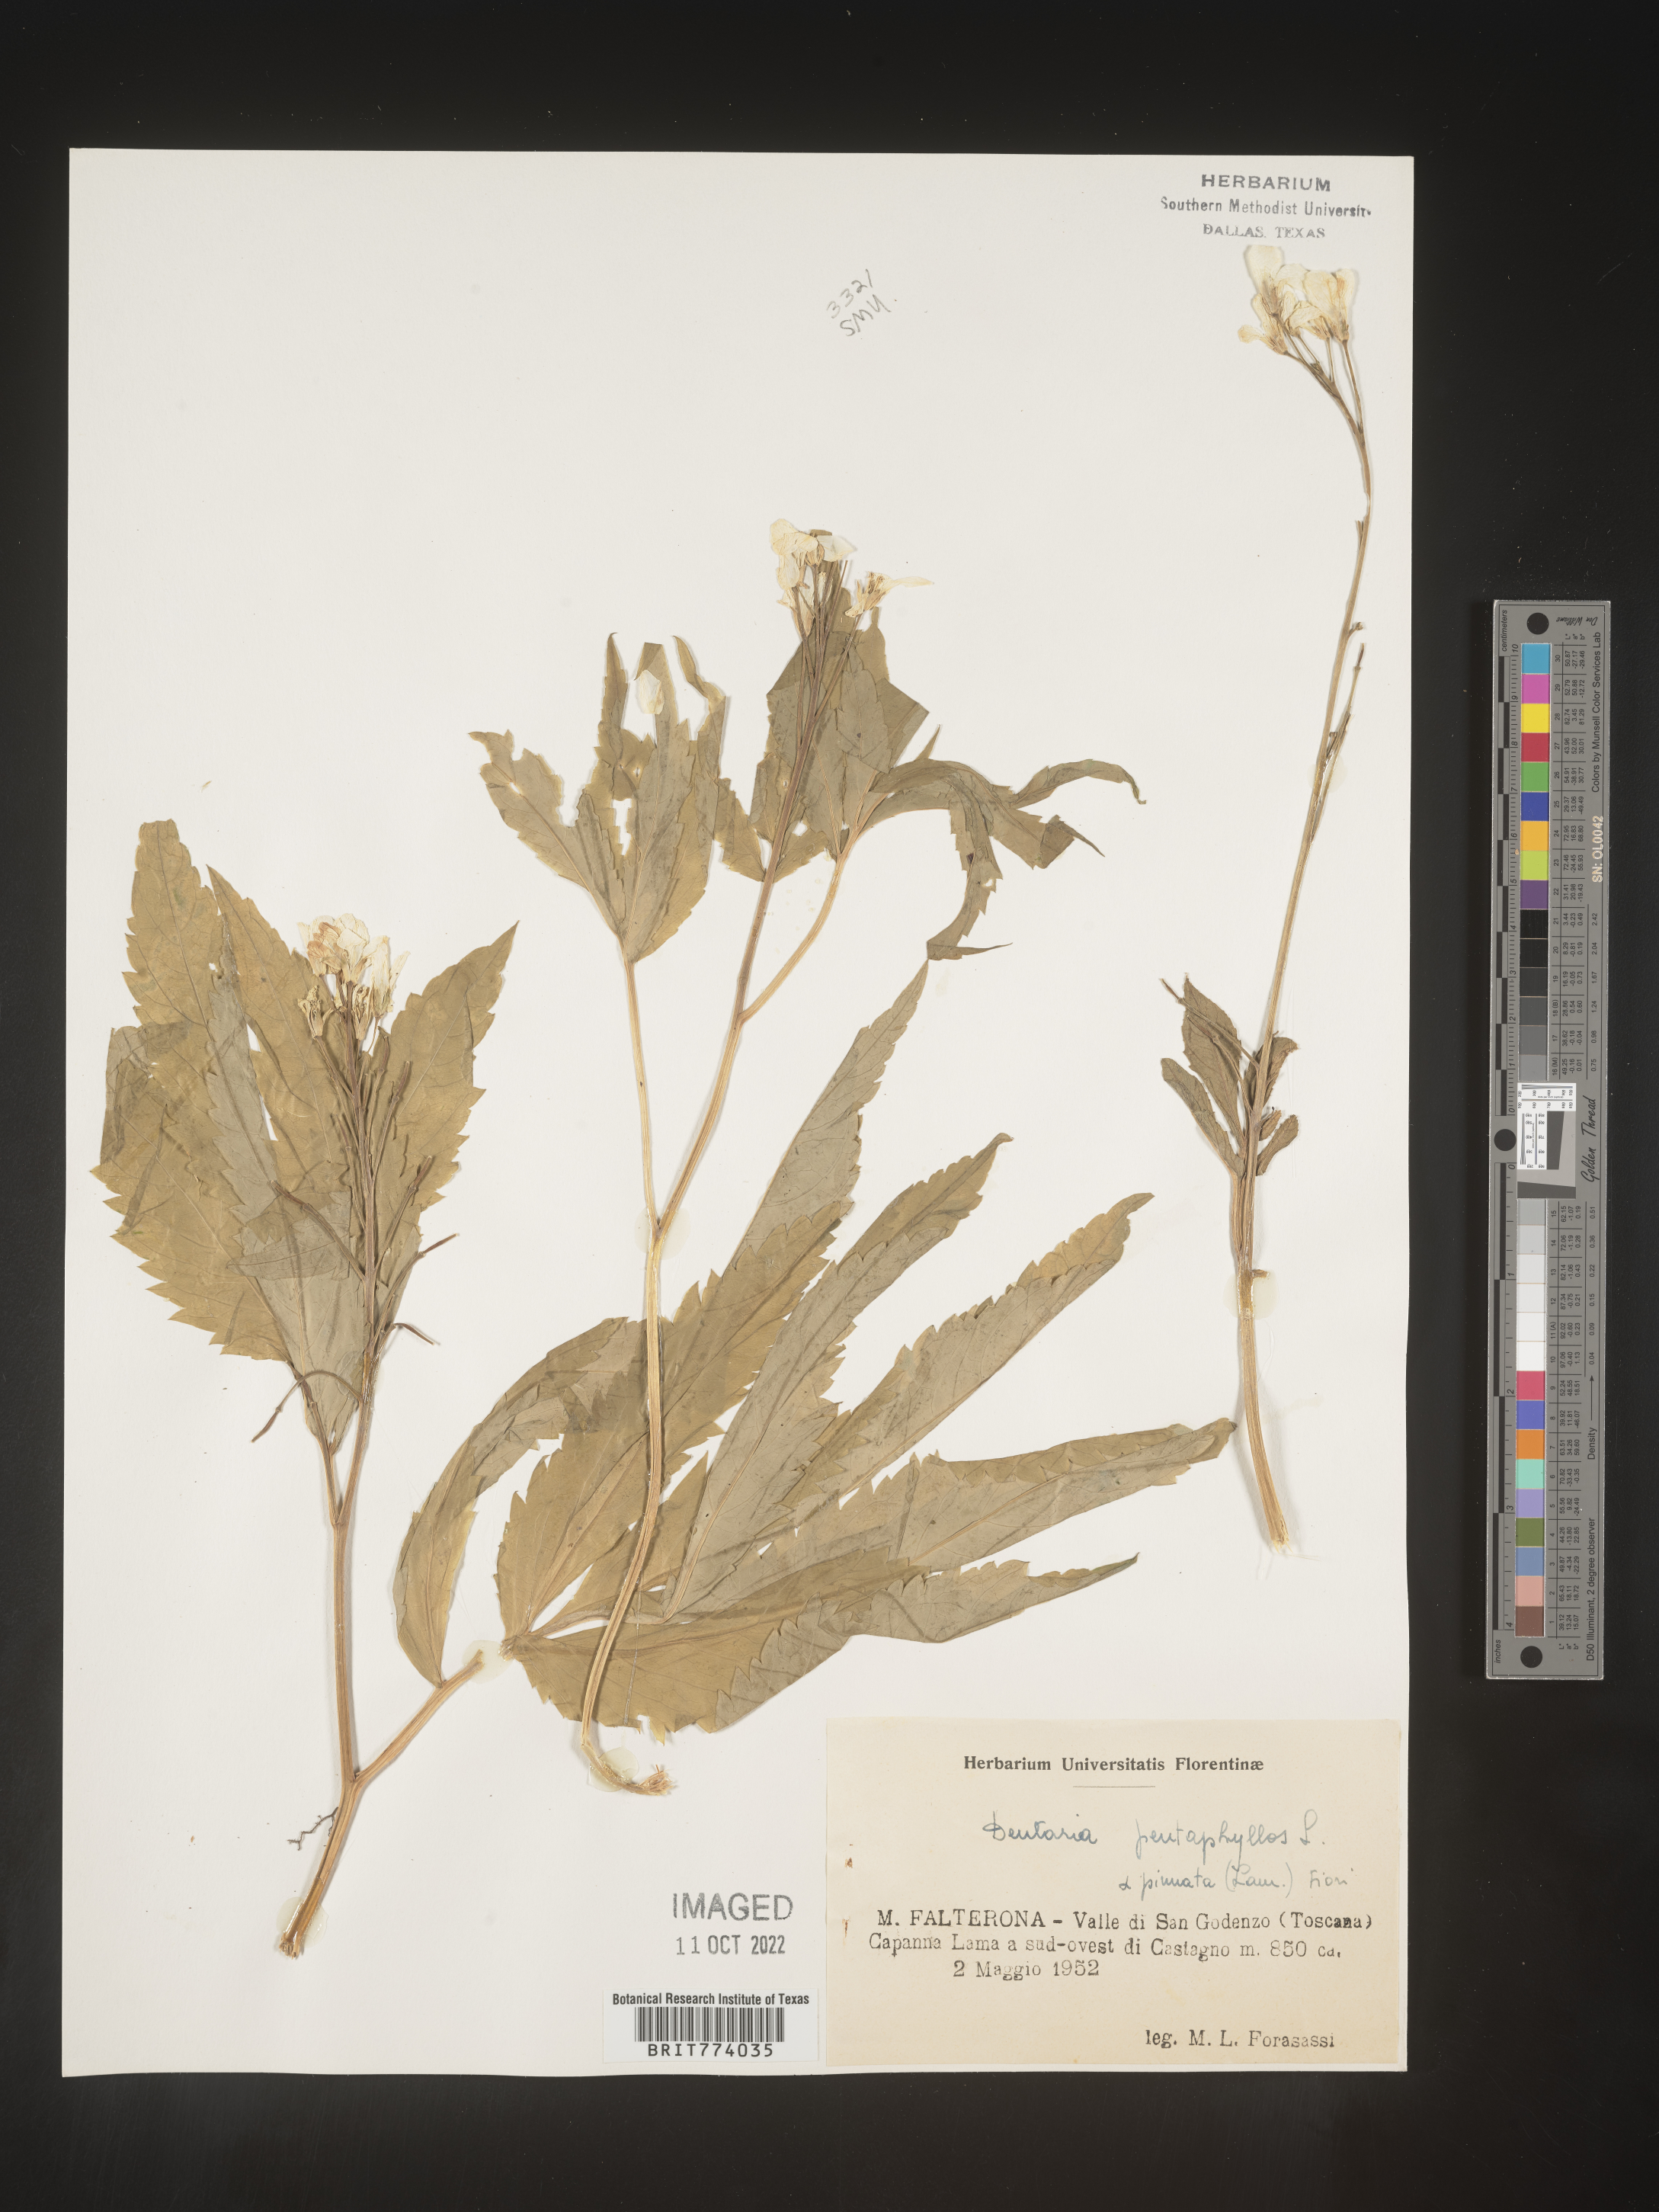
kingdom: Plantae
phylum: Tracheophyta
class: Magnoliopsida
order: Brassicales
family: Brassicaceae
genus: Cardamine
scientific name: Cardamine
